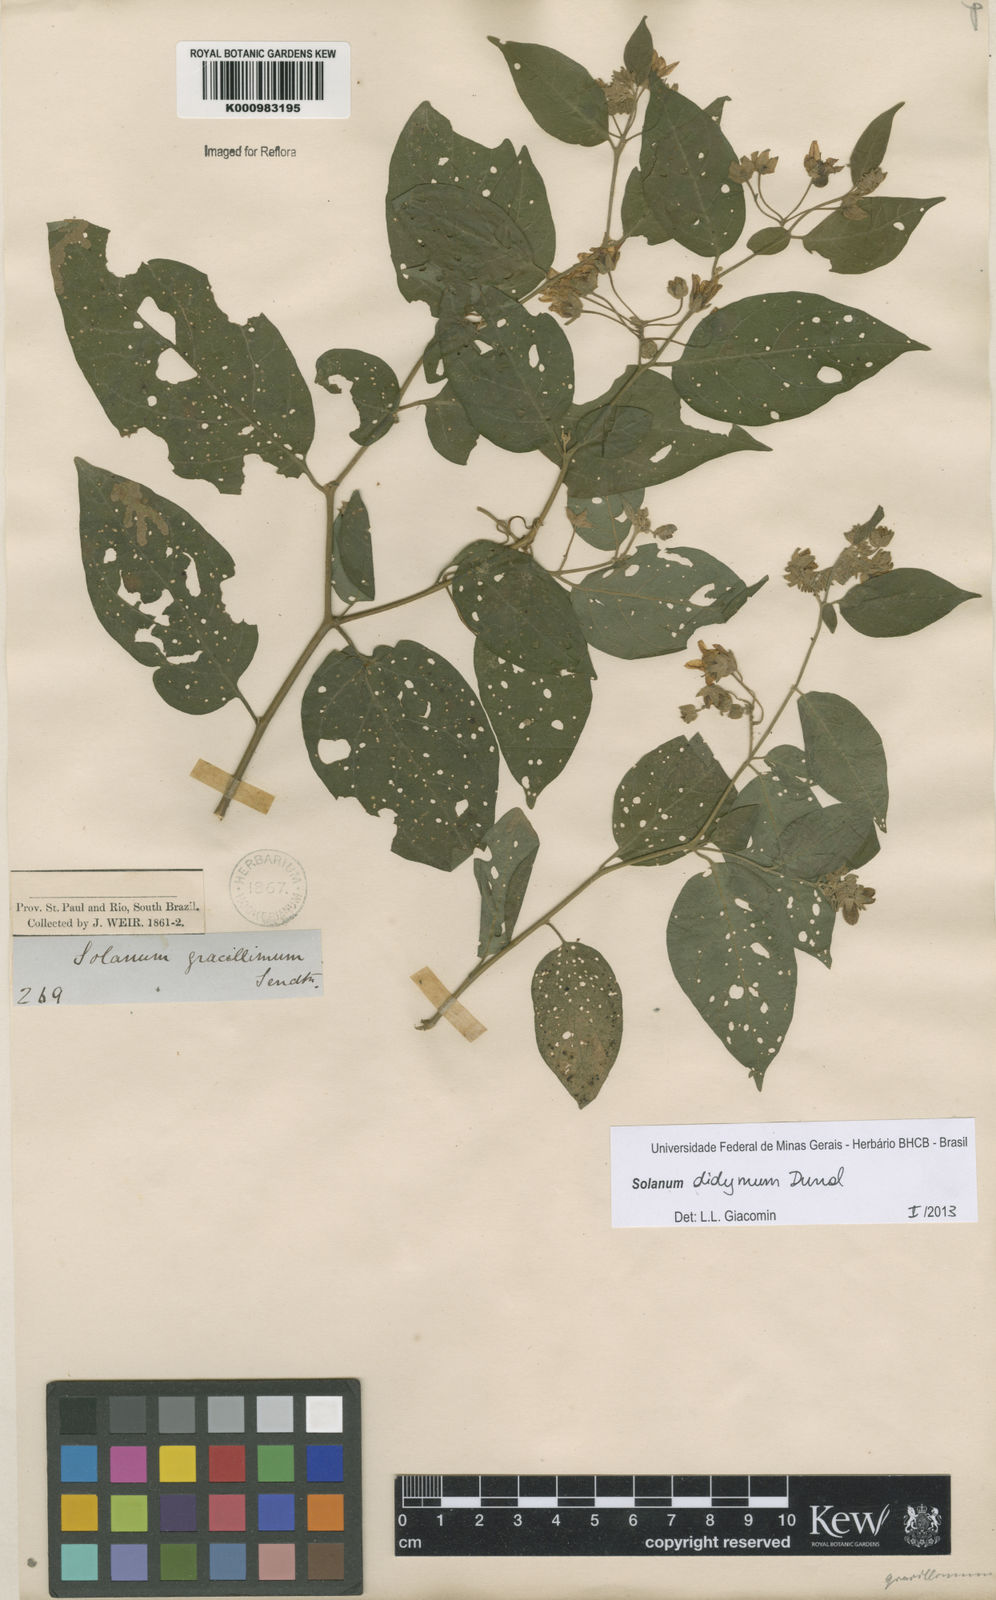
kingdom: Plantae
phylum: Tracheophyta
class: Magnoliopsida
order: Solanales
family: Solanaceae
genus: Solanum
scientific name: Solanum didymum
